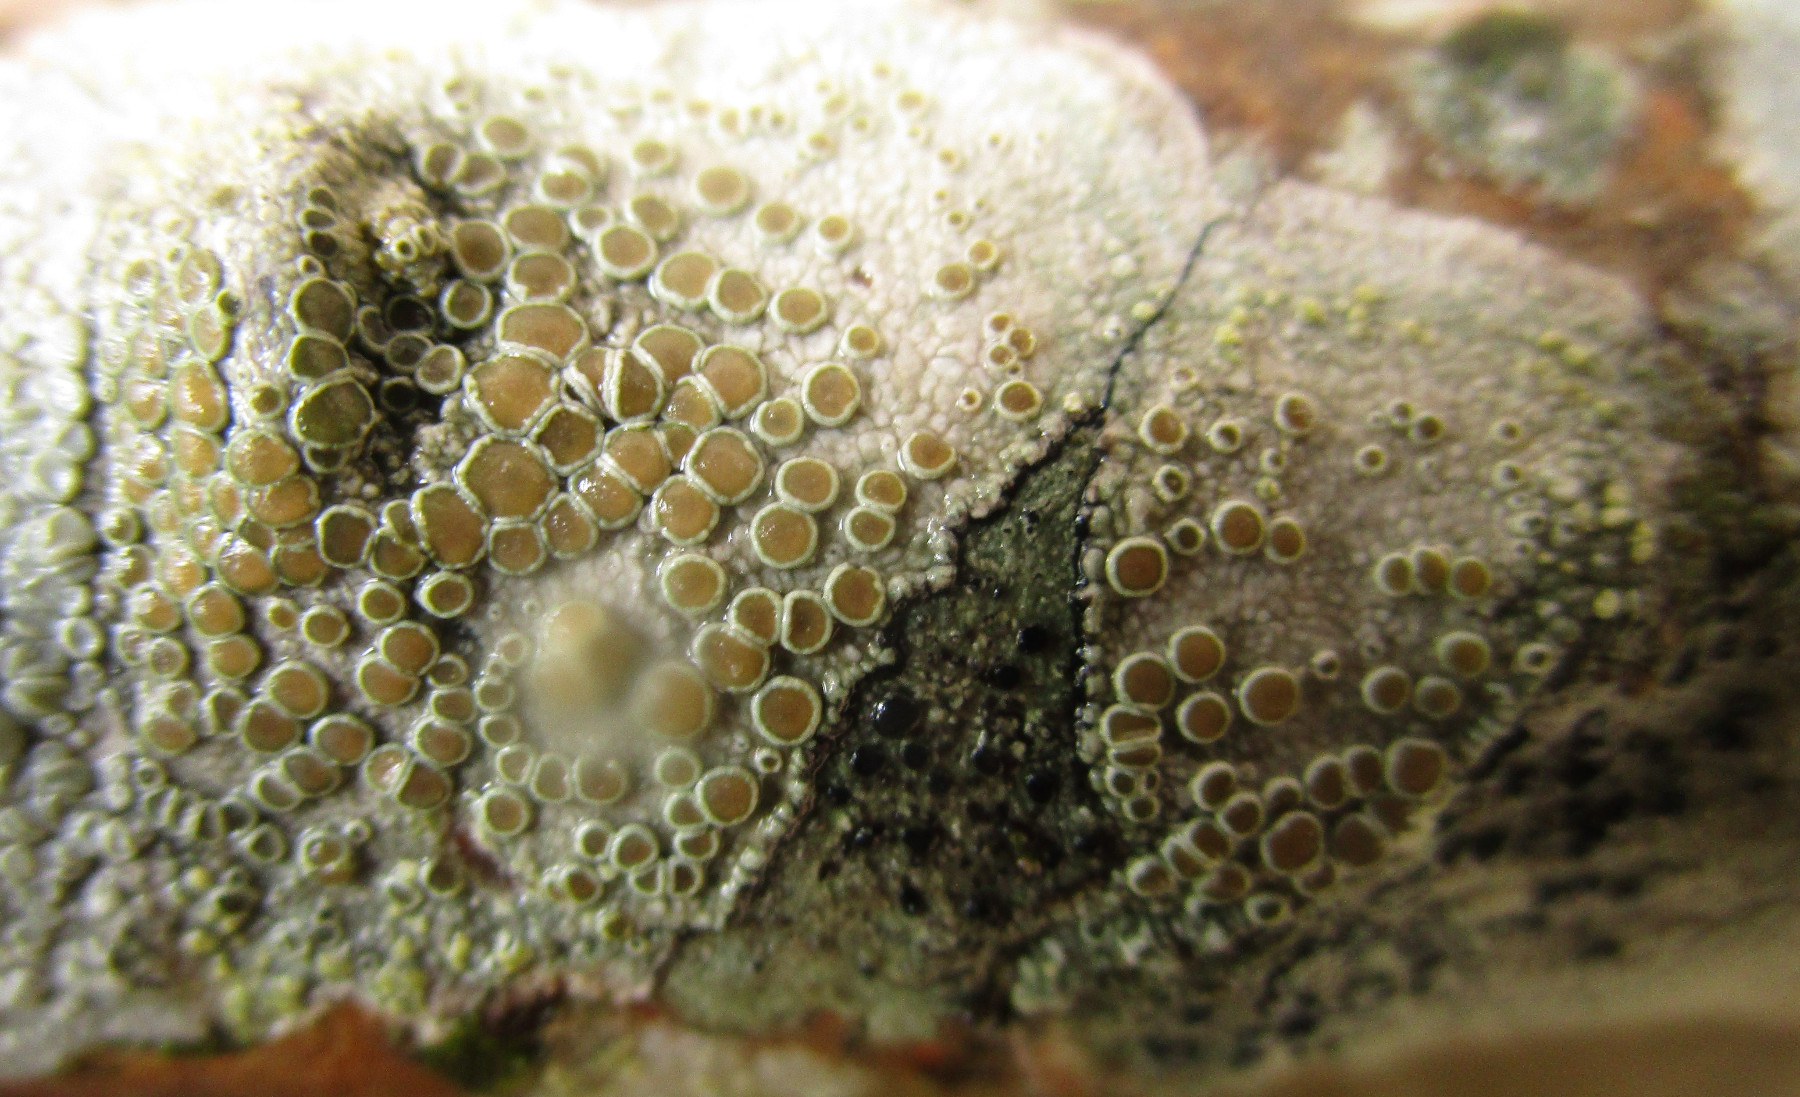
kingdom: Fungi
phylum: Ascomycota
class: Lecanoromycetes
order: Lecanorales
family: Lecanoraceae
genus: Lecanora
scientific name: Lecanora chlarotera
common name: brun kantskivelav
